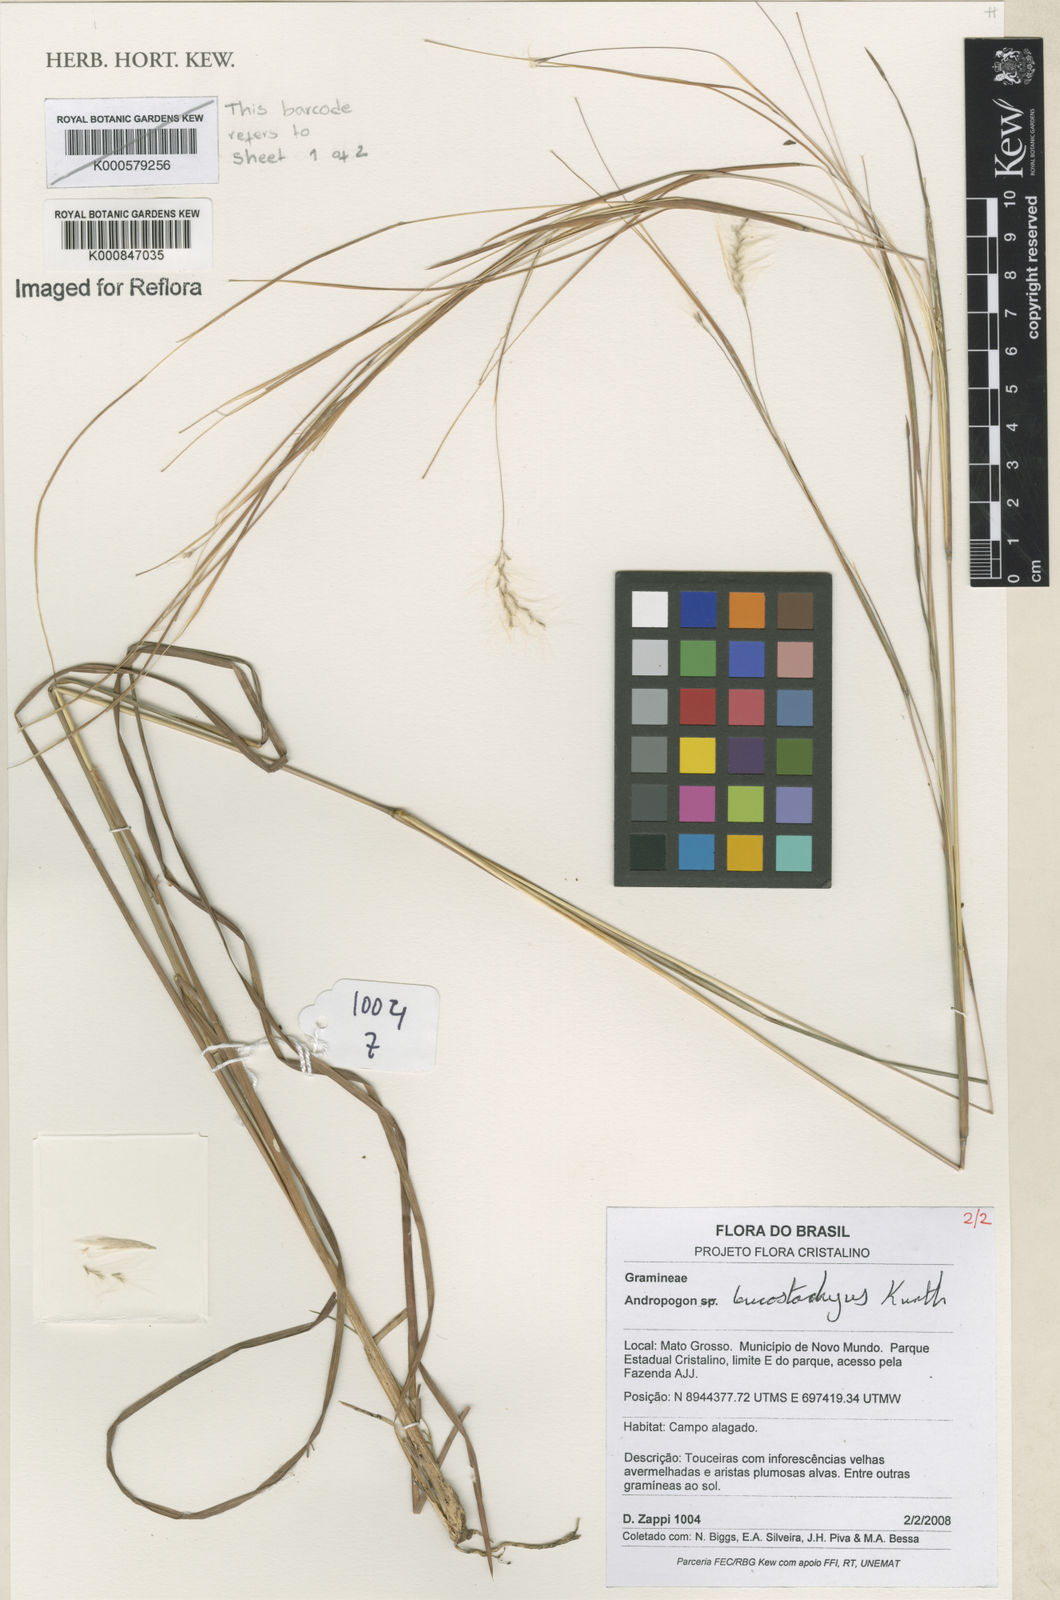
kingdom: Plantae
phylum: Tracheophyta
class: Liliopsida
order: Poales
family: Poaceae
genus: Andropogon
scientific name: Andropogon leucostachyus
